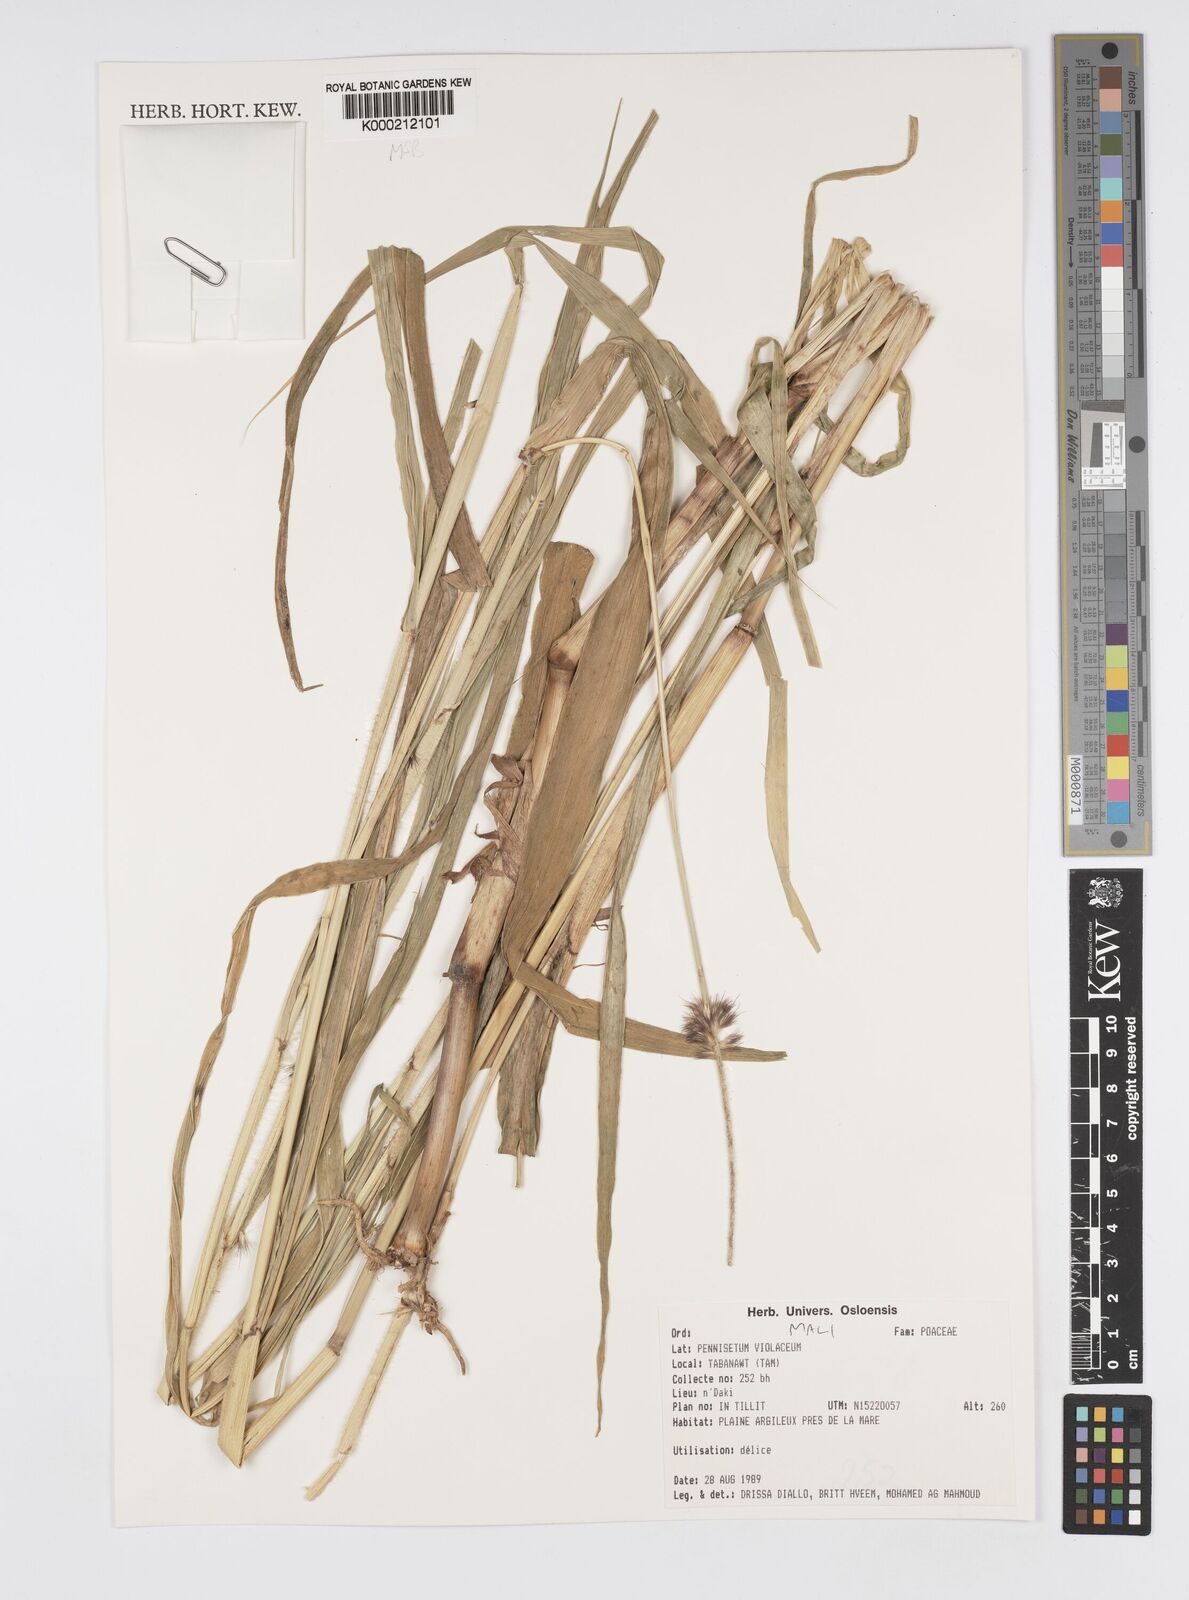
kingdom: Plantae
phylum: Tracheophyta
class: Liliopsida
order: Poales
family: Poaceae
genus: Cenchrus
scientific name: Cenchrus violaceus
